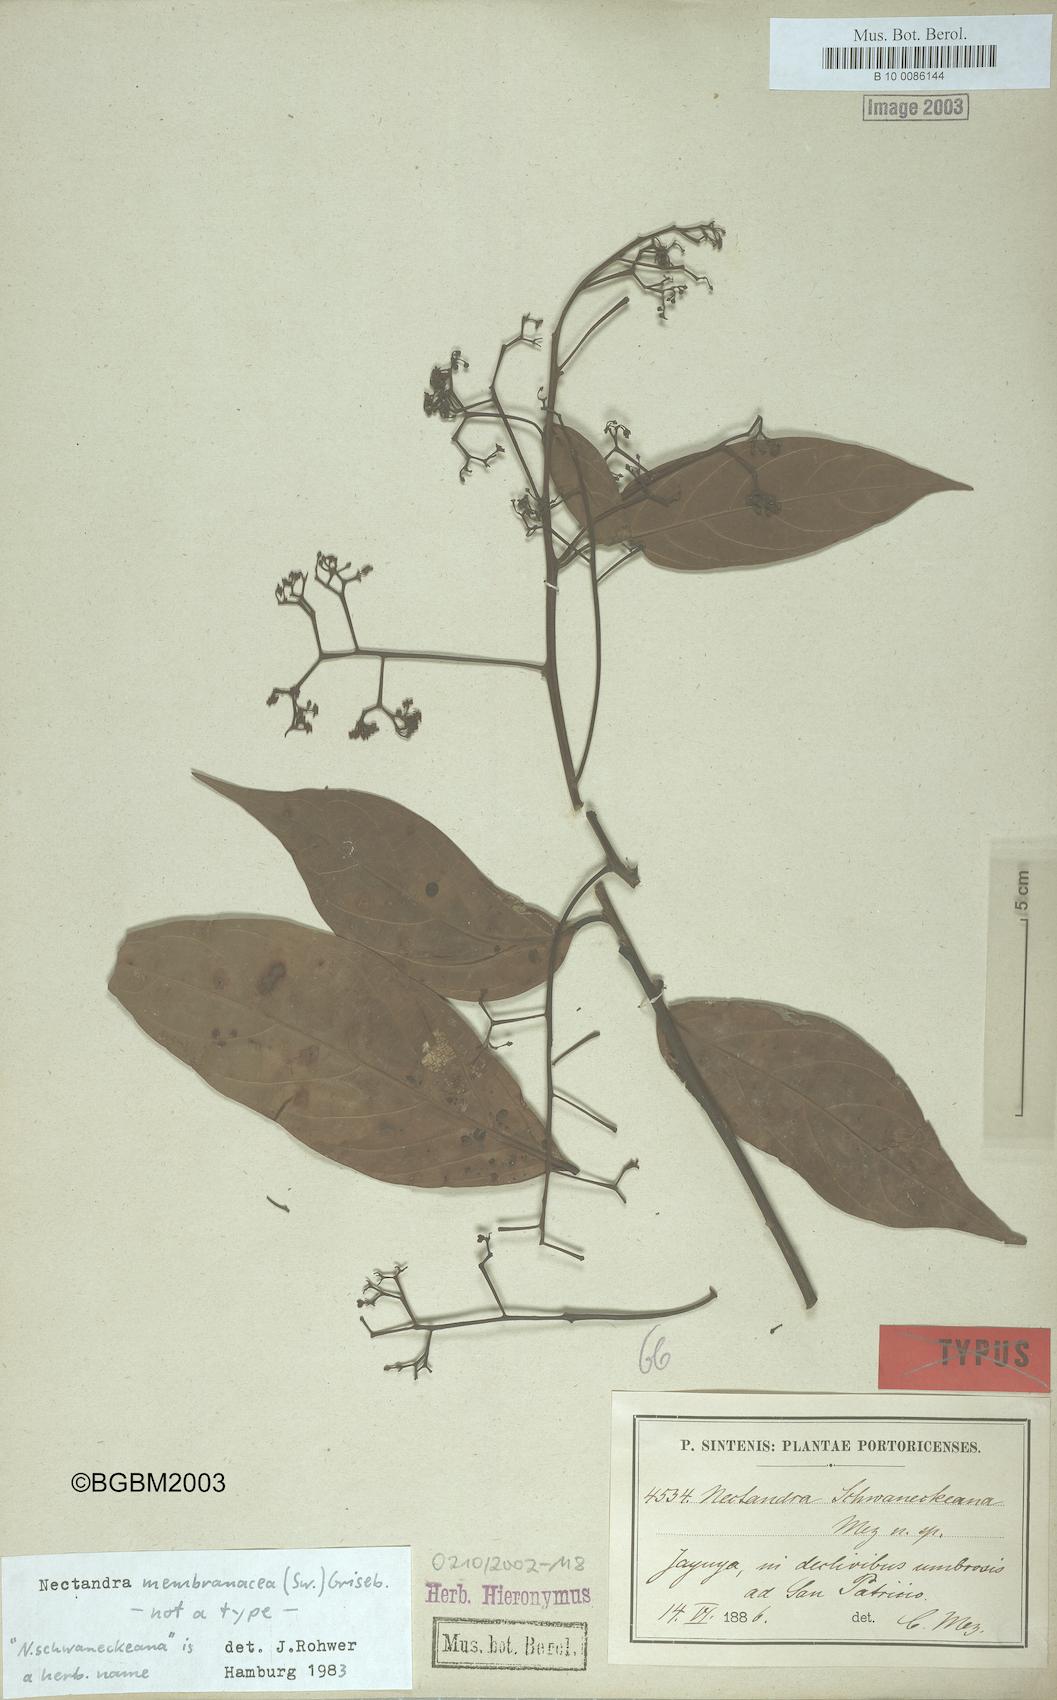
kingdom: Plantae
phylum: Tracheophyta
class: Magnoliopsida
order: Laurales
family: Lauraceae
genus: Nectandra
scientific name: Nectandra membranacea
